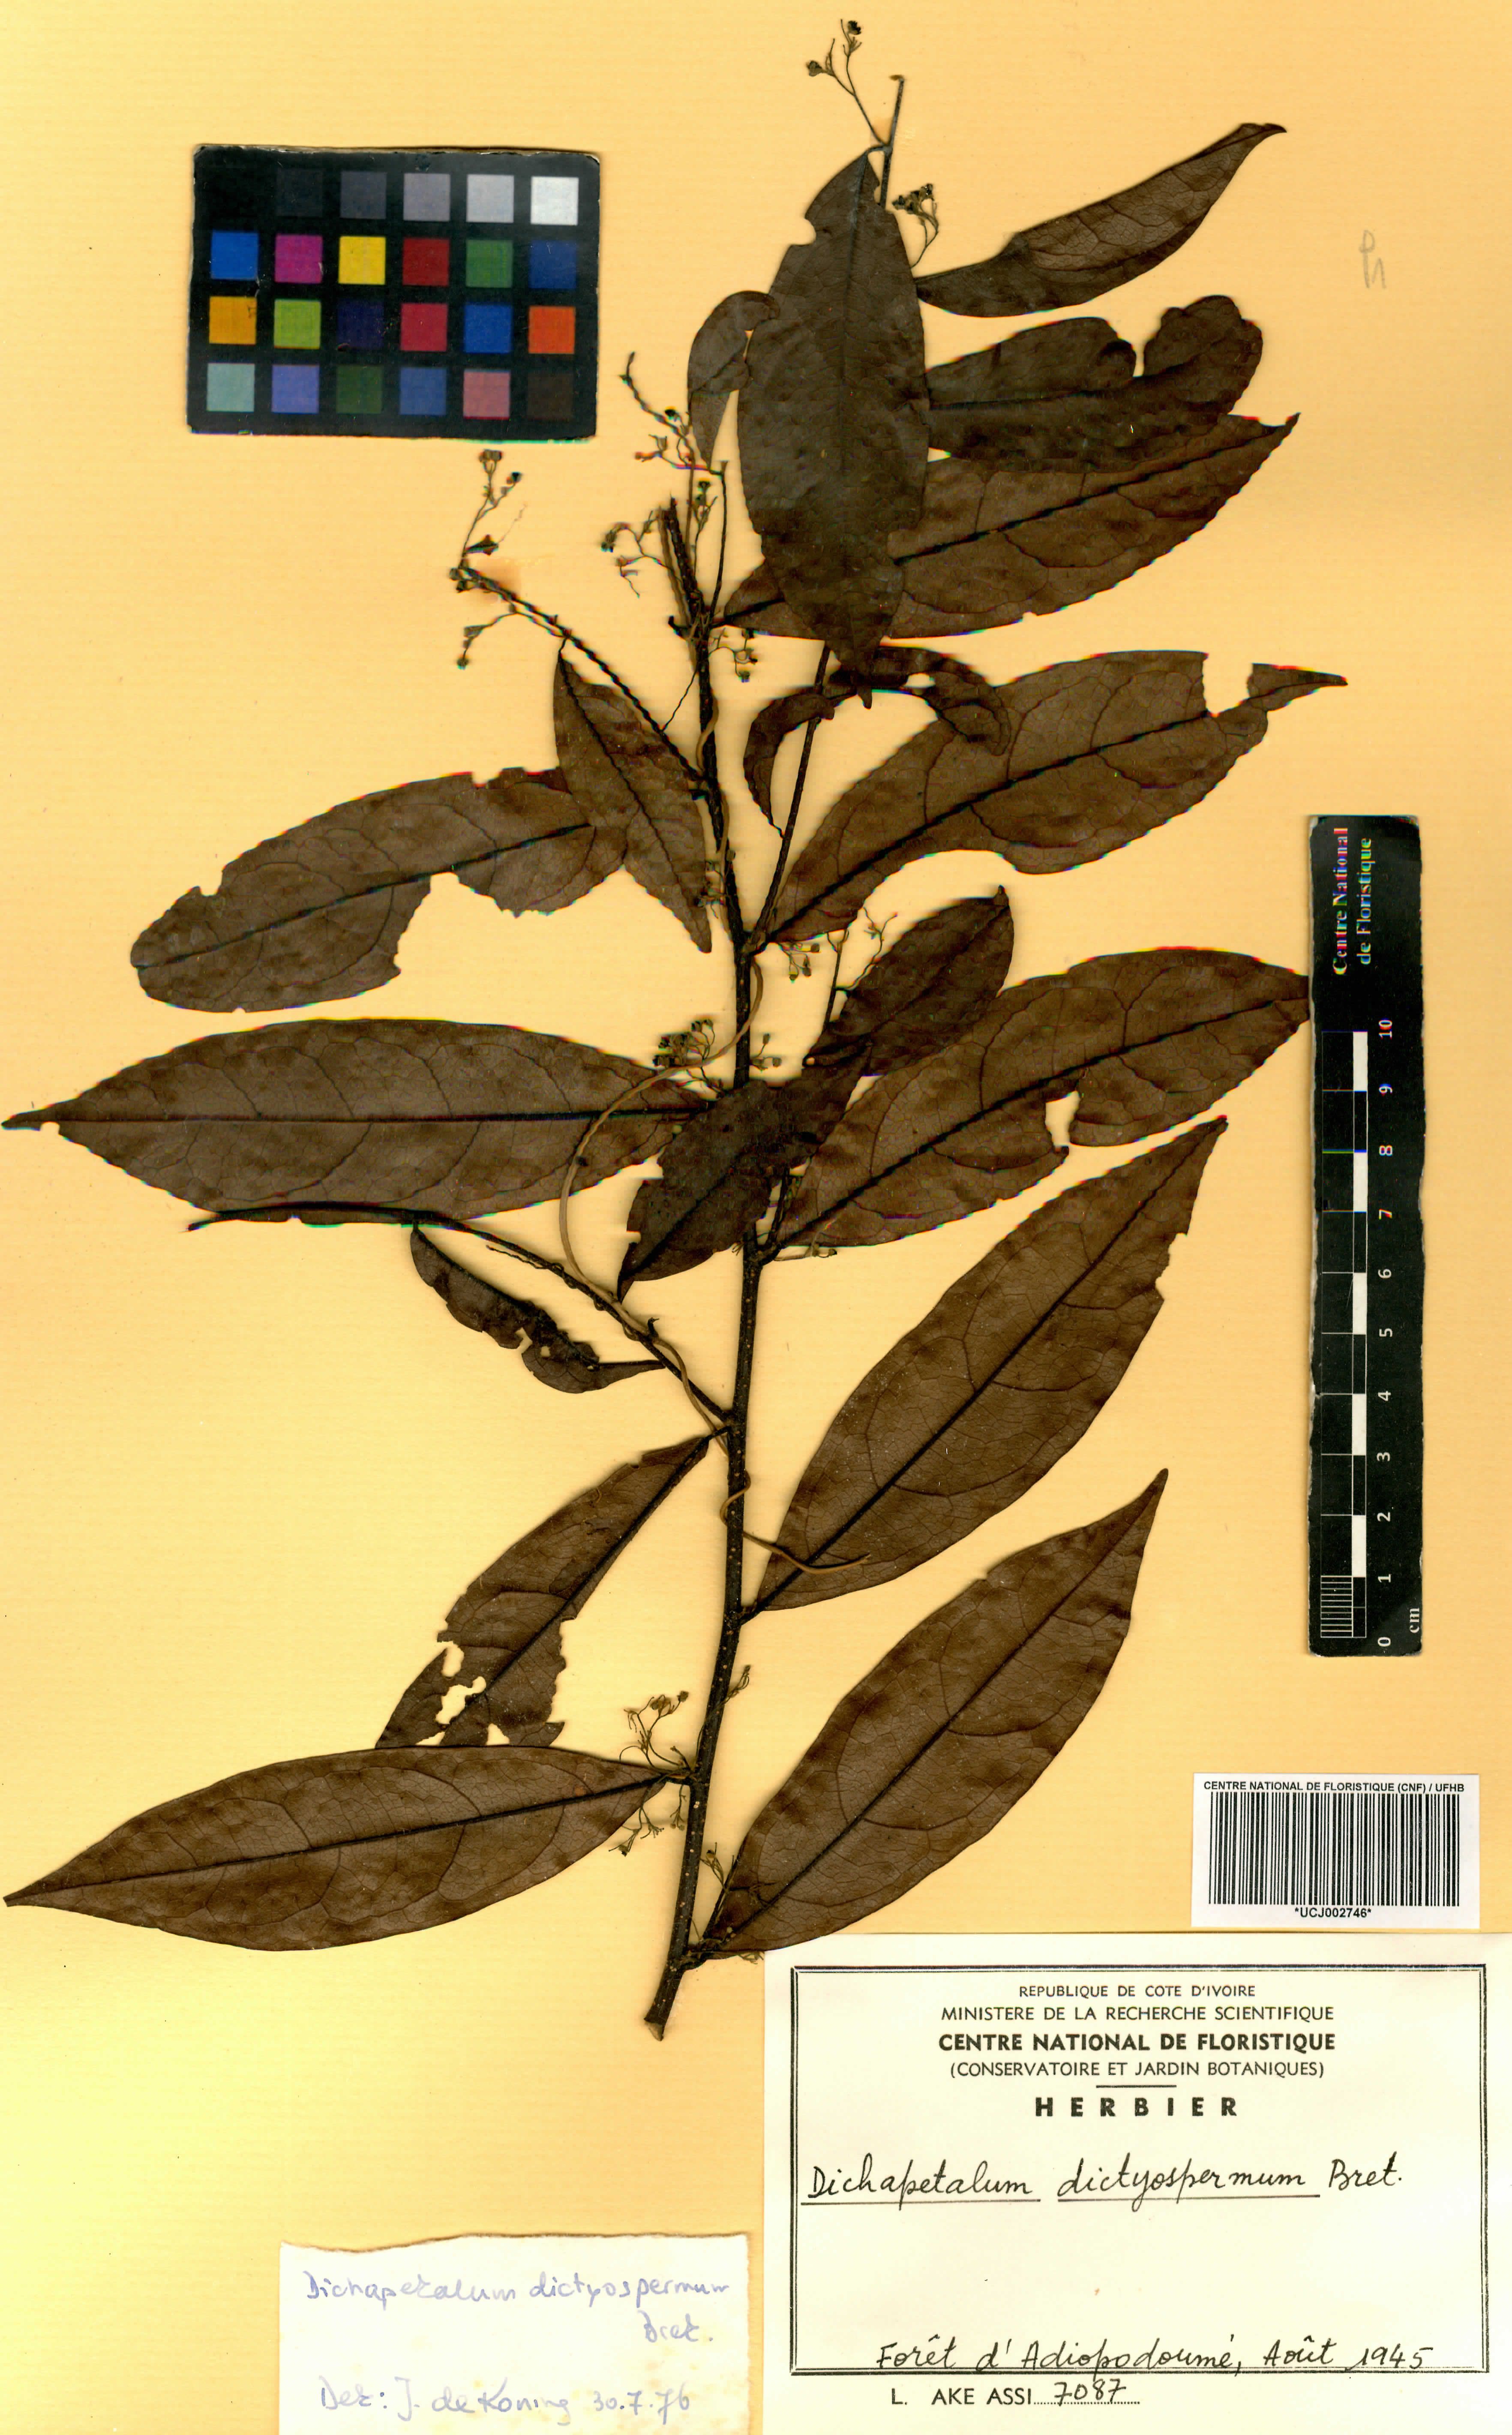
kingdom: Plantae
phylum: Tracheophyta
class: Magnoliopsida
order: Malpighiales
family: Dichapetalaceae
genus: Dichapetalum
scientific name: Dichapetalum dictyospermum
